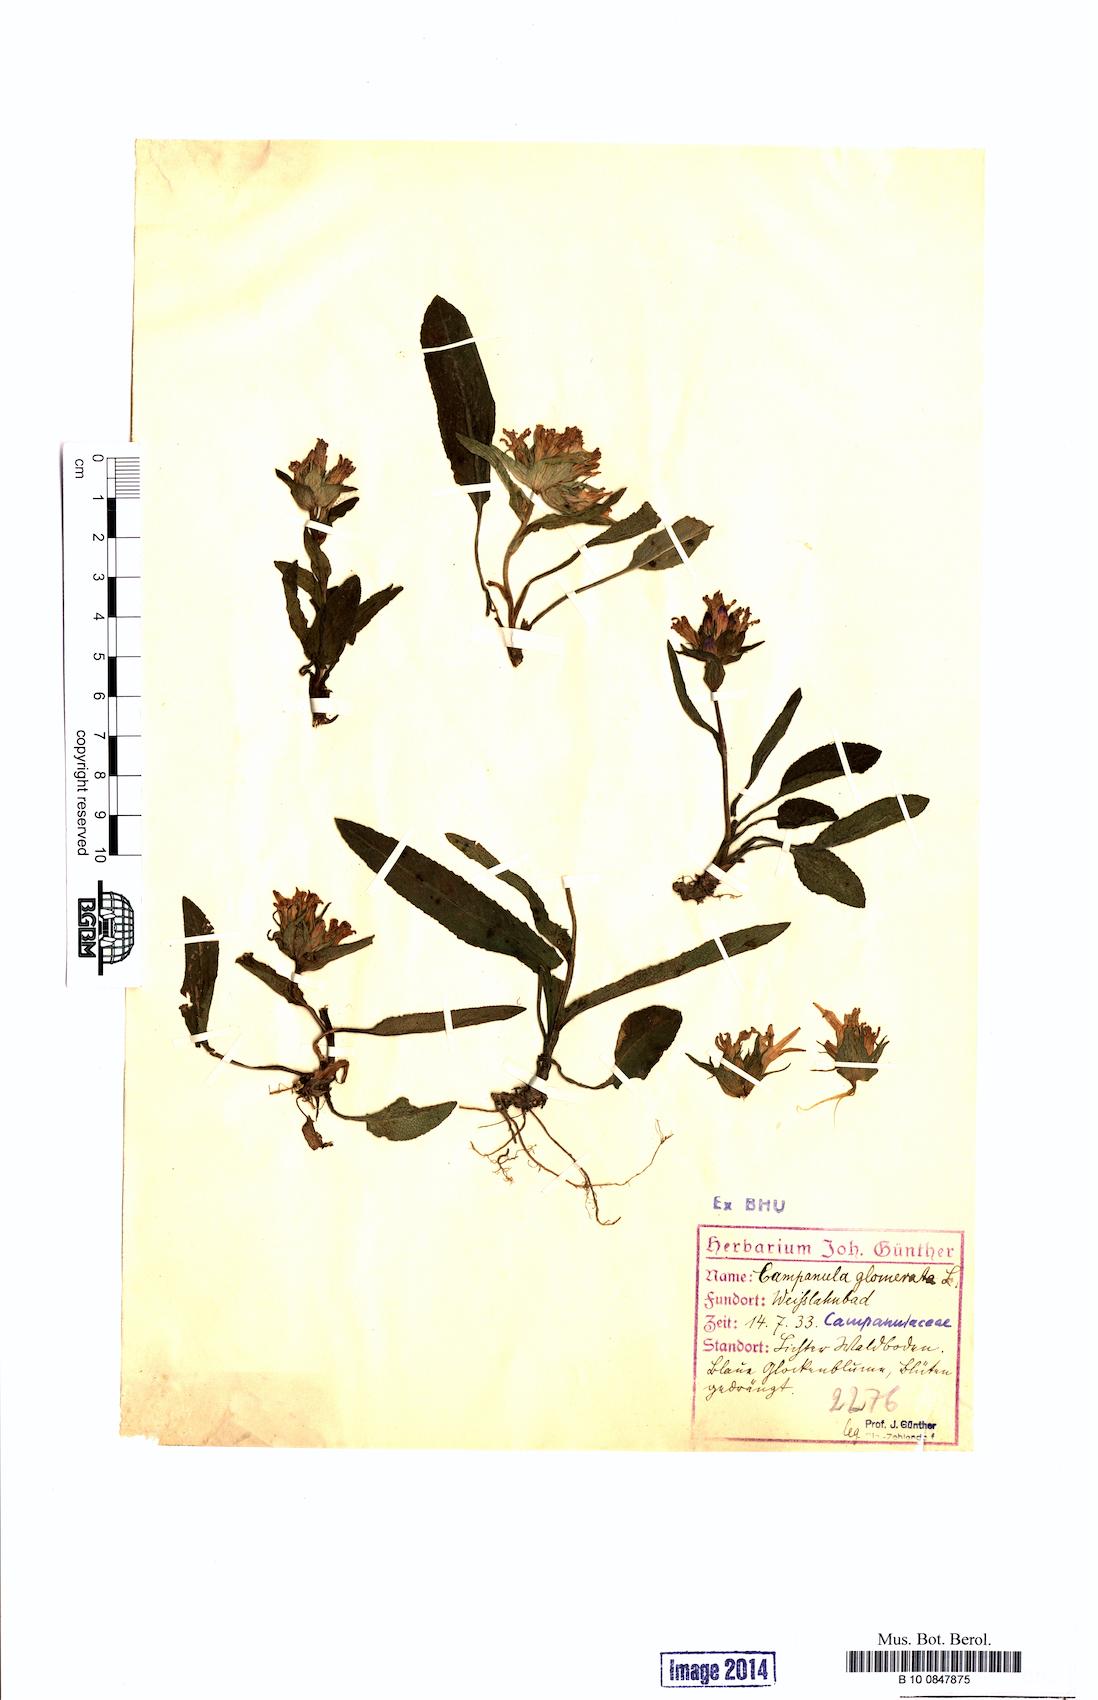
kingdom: Plantae
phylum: Tracheophyta
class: Magnoliopsida
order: Asterales
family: Campanulaceae
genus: Campanula
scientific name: Campanula glomerata
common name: Clustered bellflower
